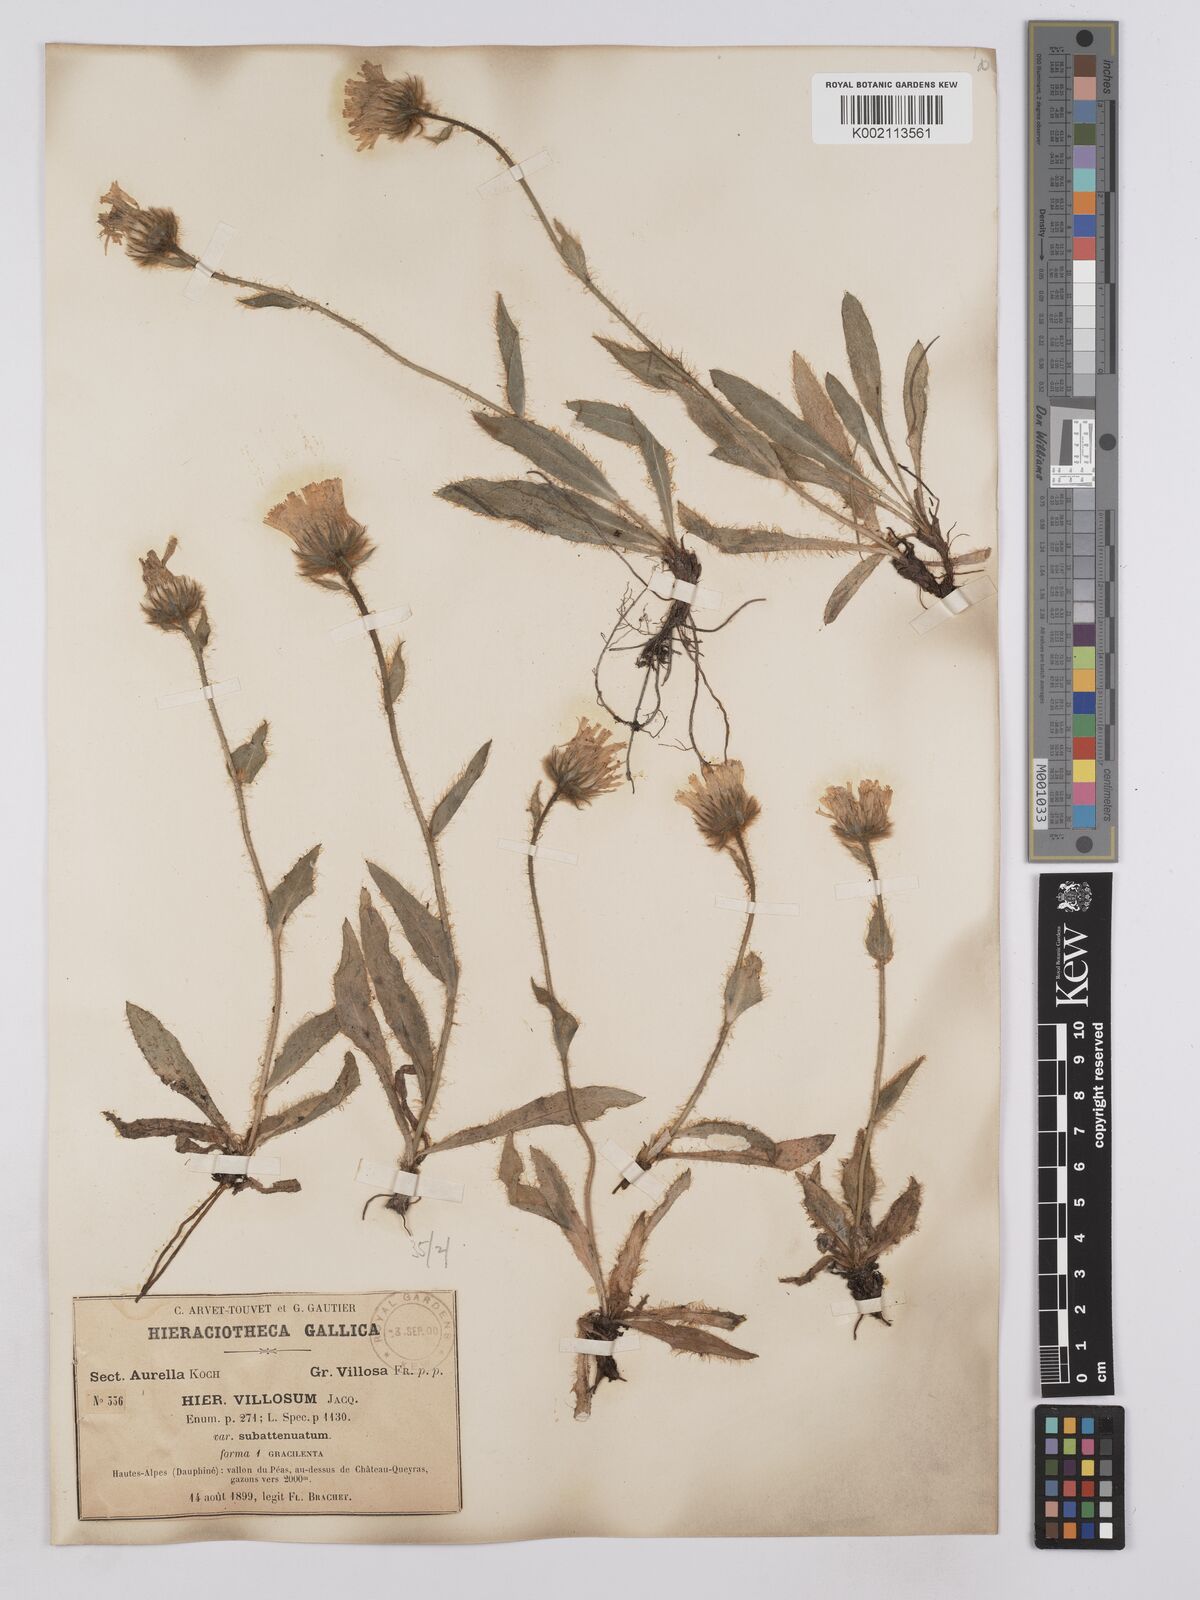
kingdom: Plantae
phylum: Tracheophyta
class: Magnoliopsida
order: Asterales
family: Asteraceae
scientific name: Asteraceae
